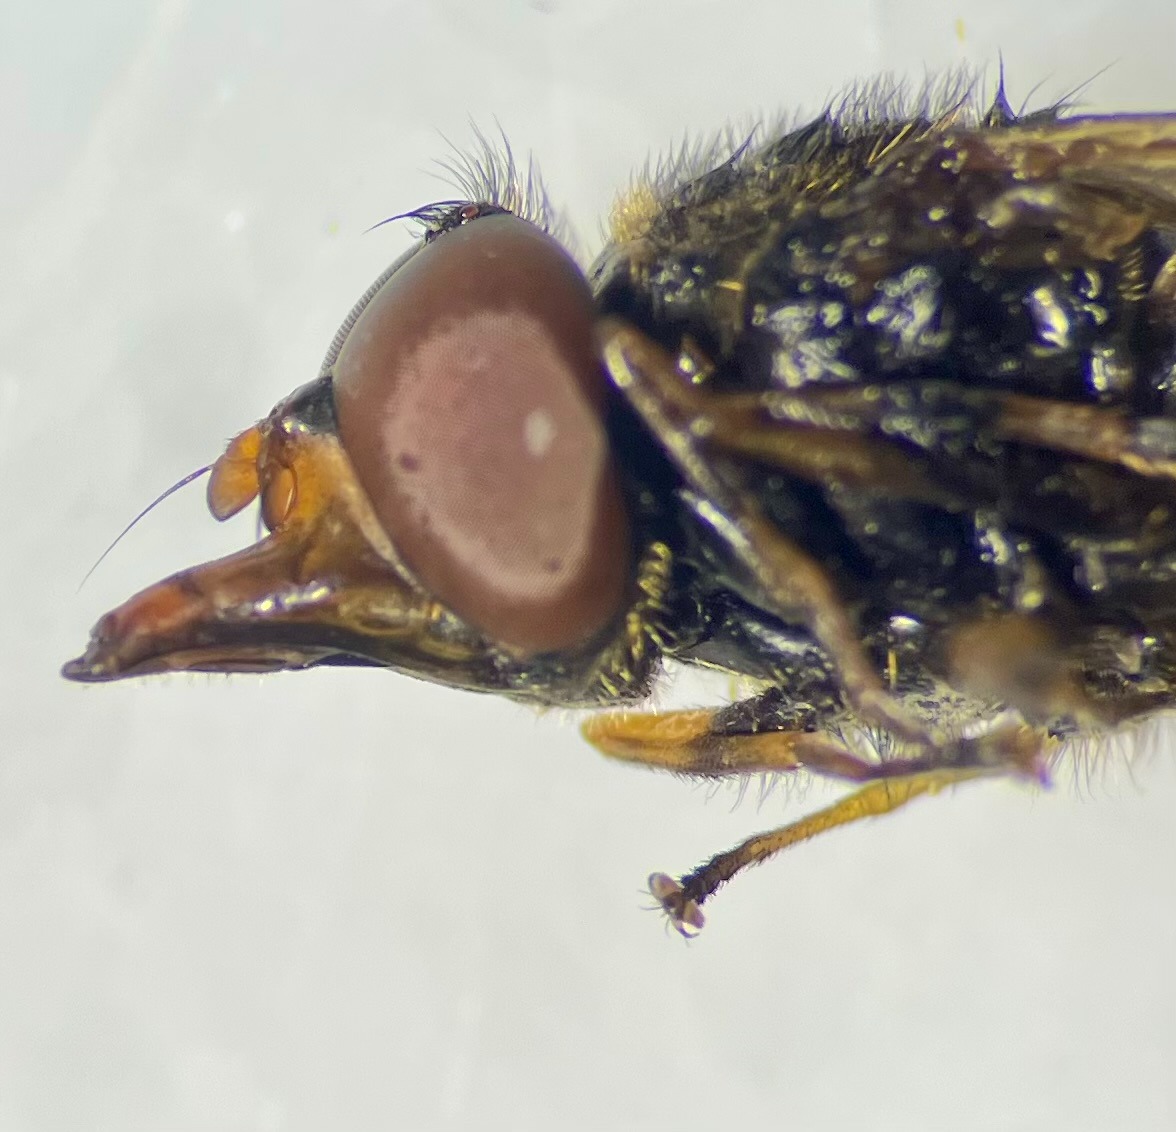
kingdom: Animalia
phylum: Arthropoda
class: Insecta
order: Diptera
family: Syrphidae
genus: Rhingia
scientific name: Rhingia campestris
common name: Mark-snabelsvirreflue
